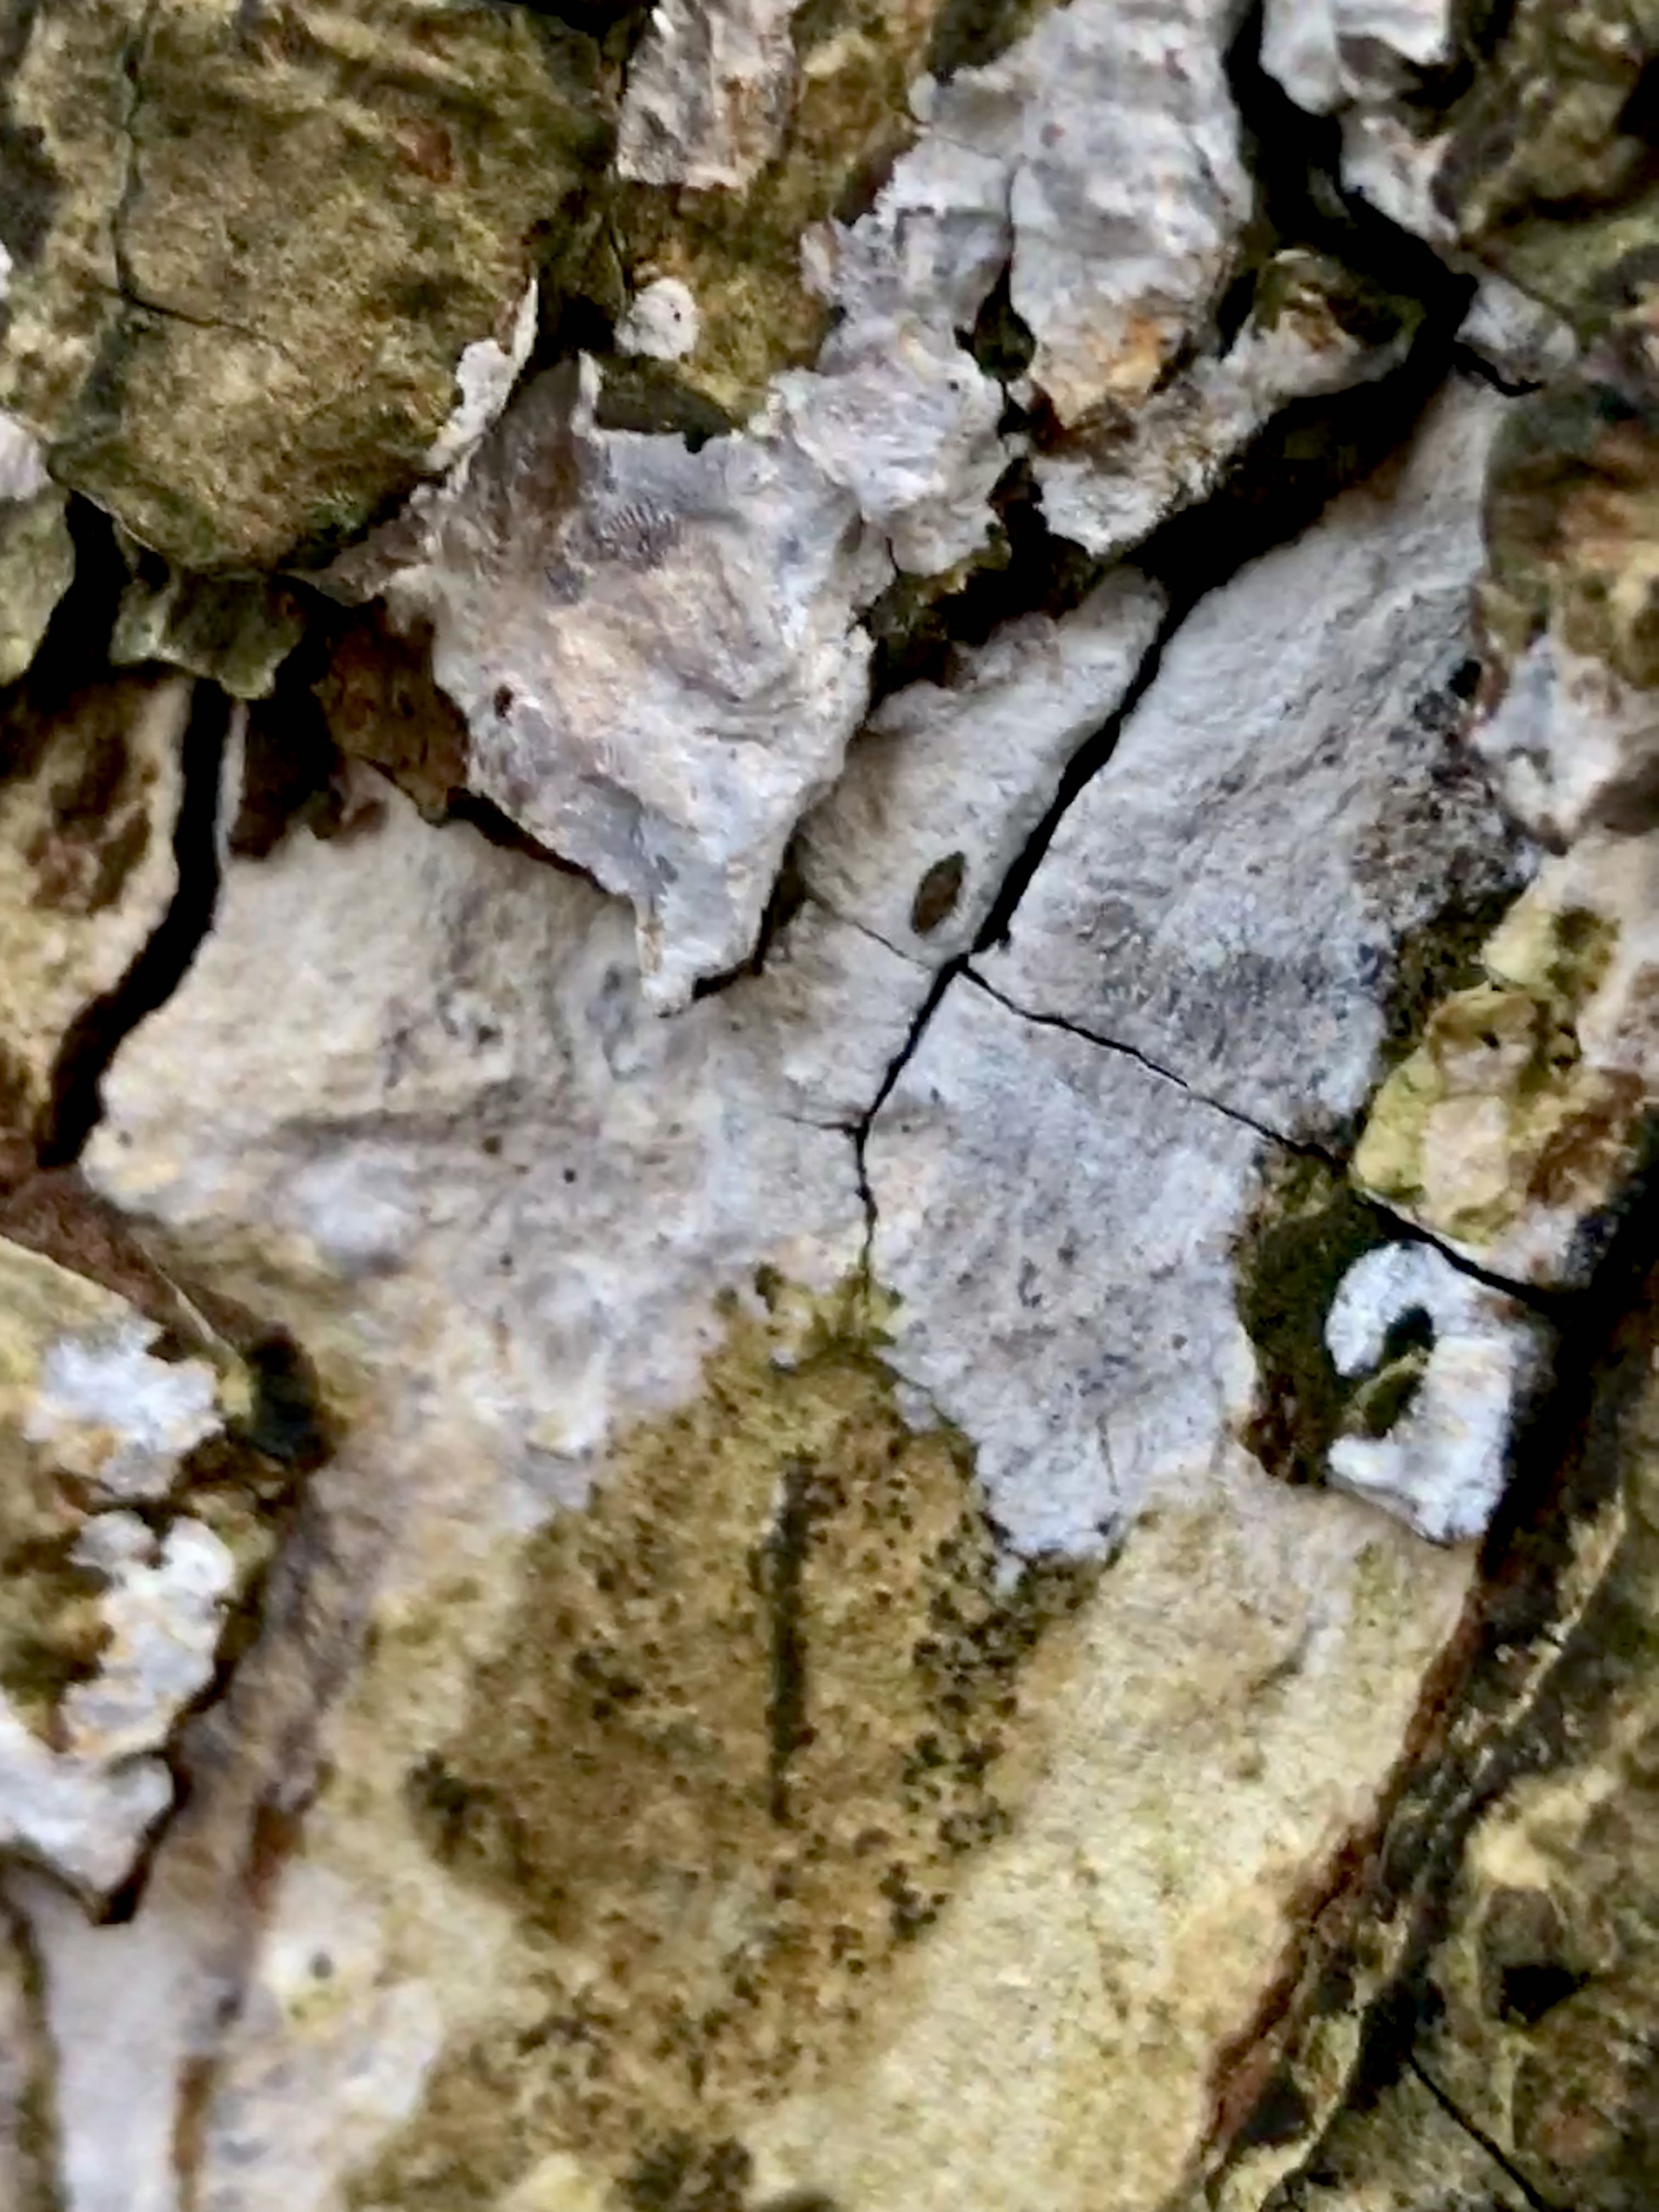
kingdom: Fungi
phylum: Basidiomycota
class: Agaricomycetes
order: Agaricales
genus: Dendrothele
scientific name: Dendrothele acerina
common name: navr-kalkplet
